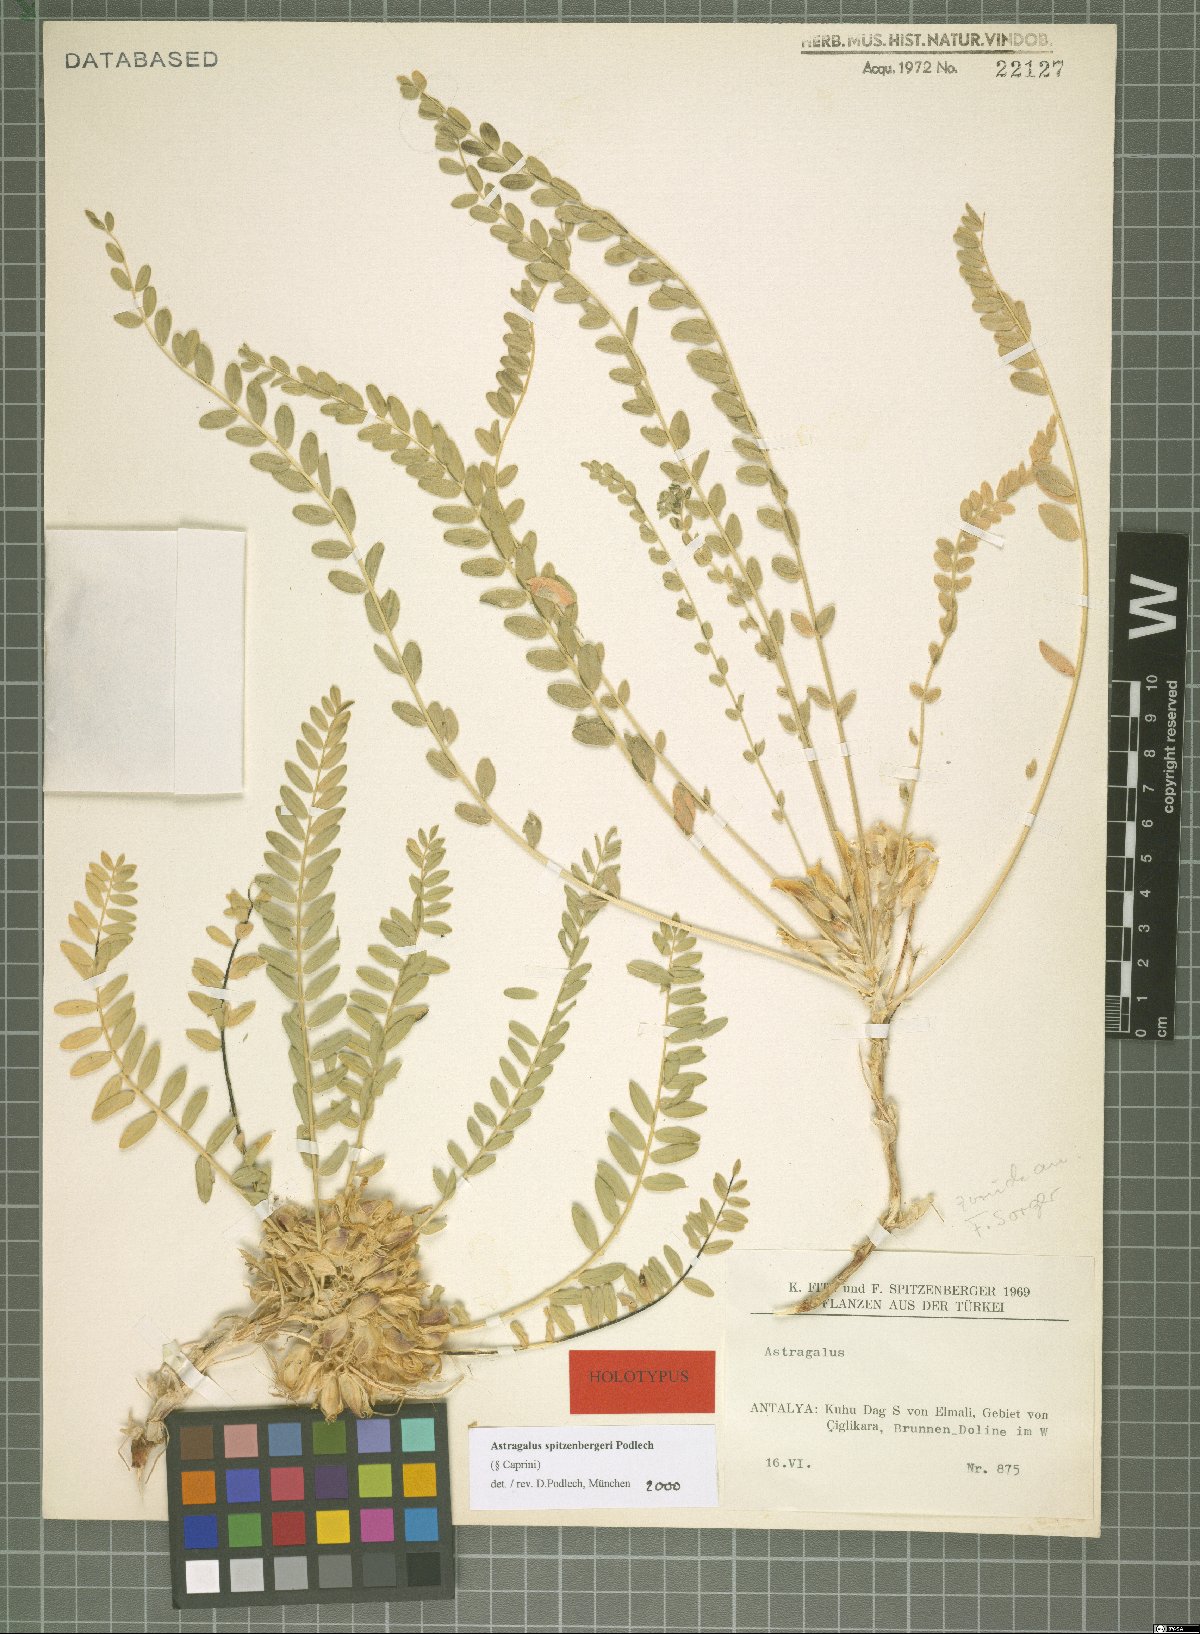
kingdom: Plantae
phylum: Tracheophyta
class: Magnoliopsida
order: Fabales
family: Fabaceae
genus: Astragalus
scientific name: Astragalus spitzenbergeri
